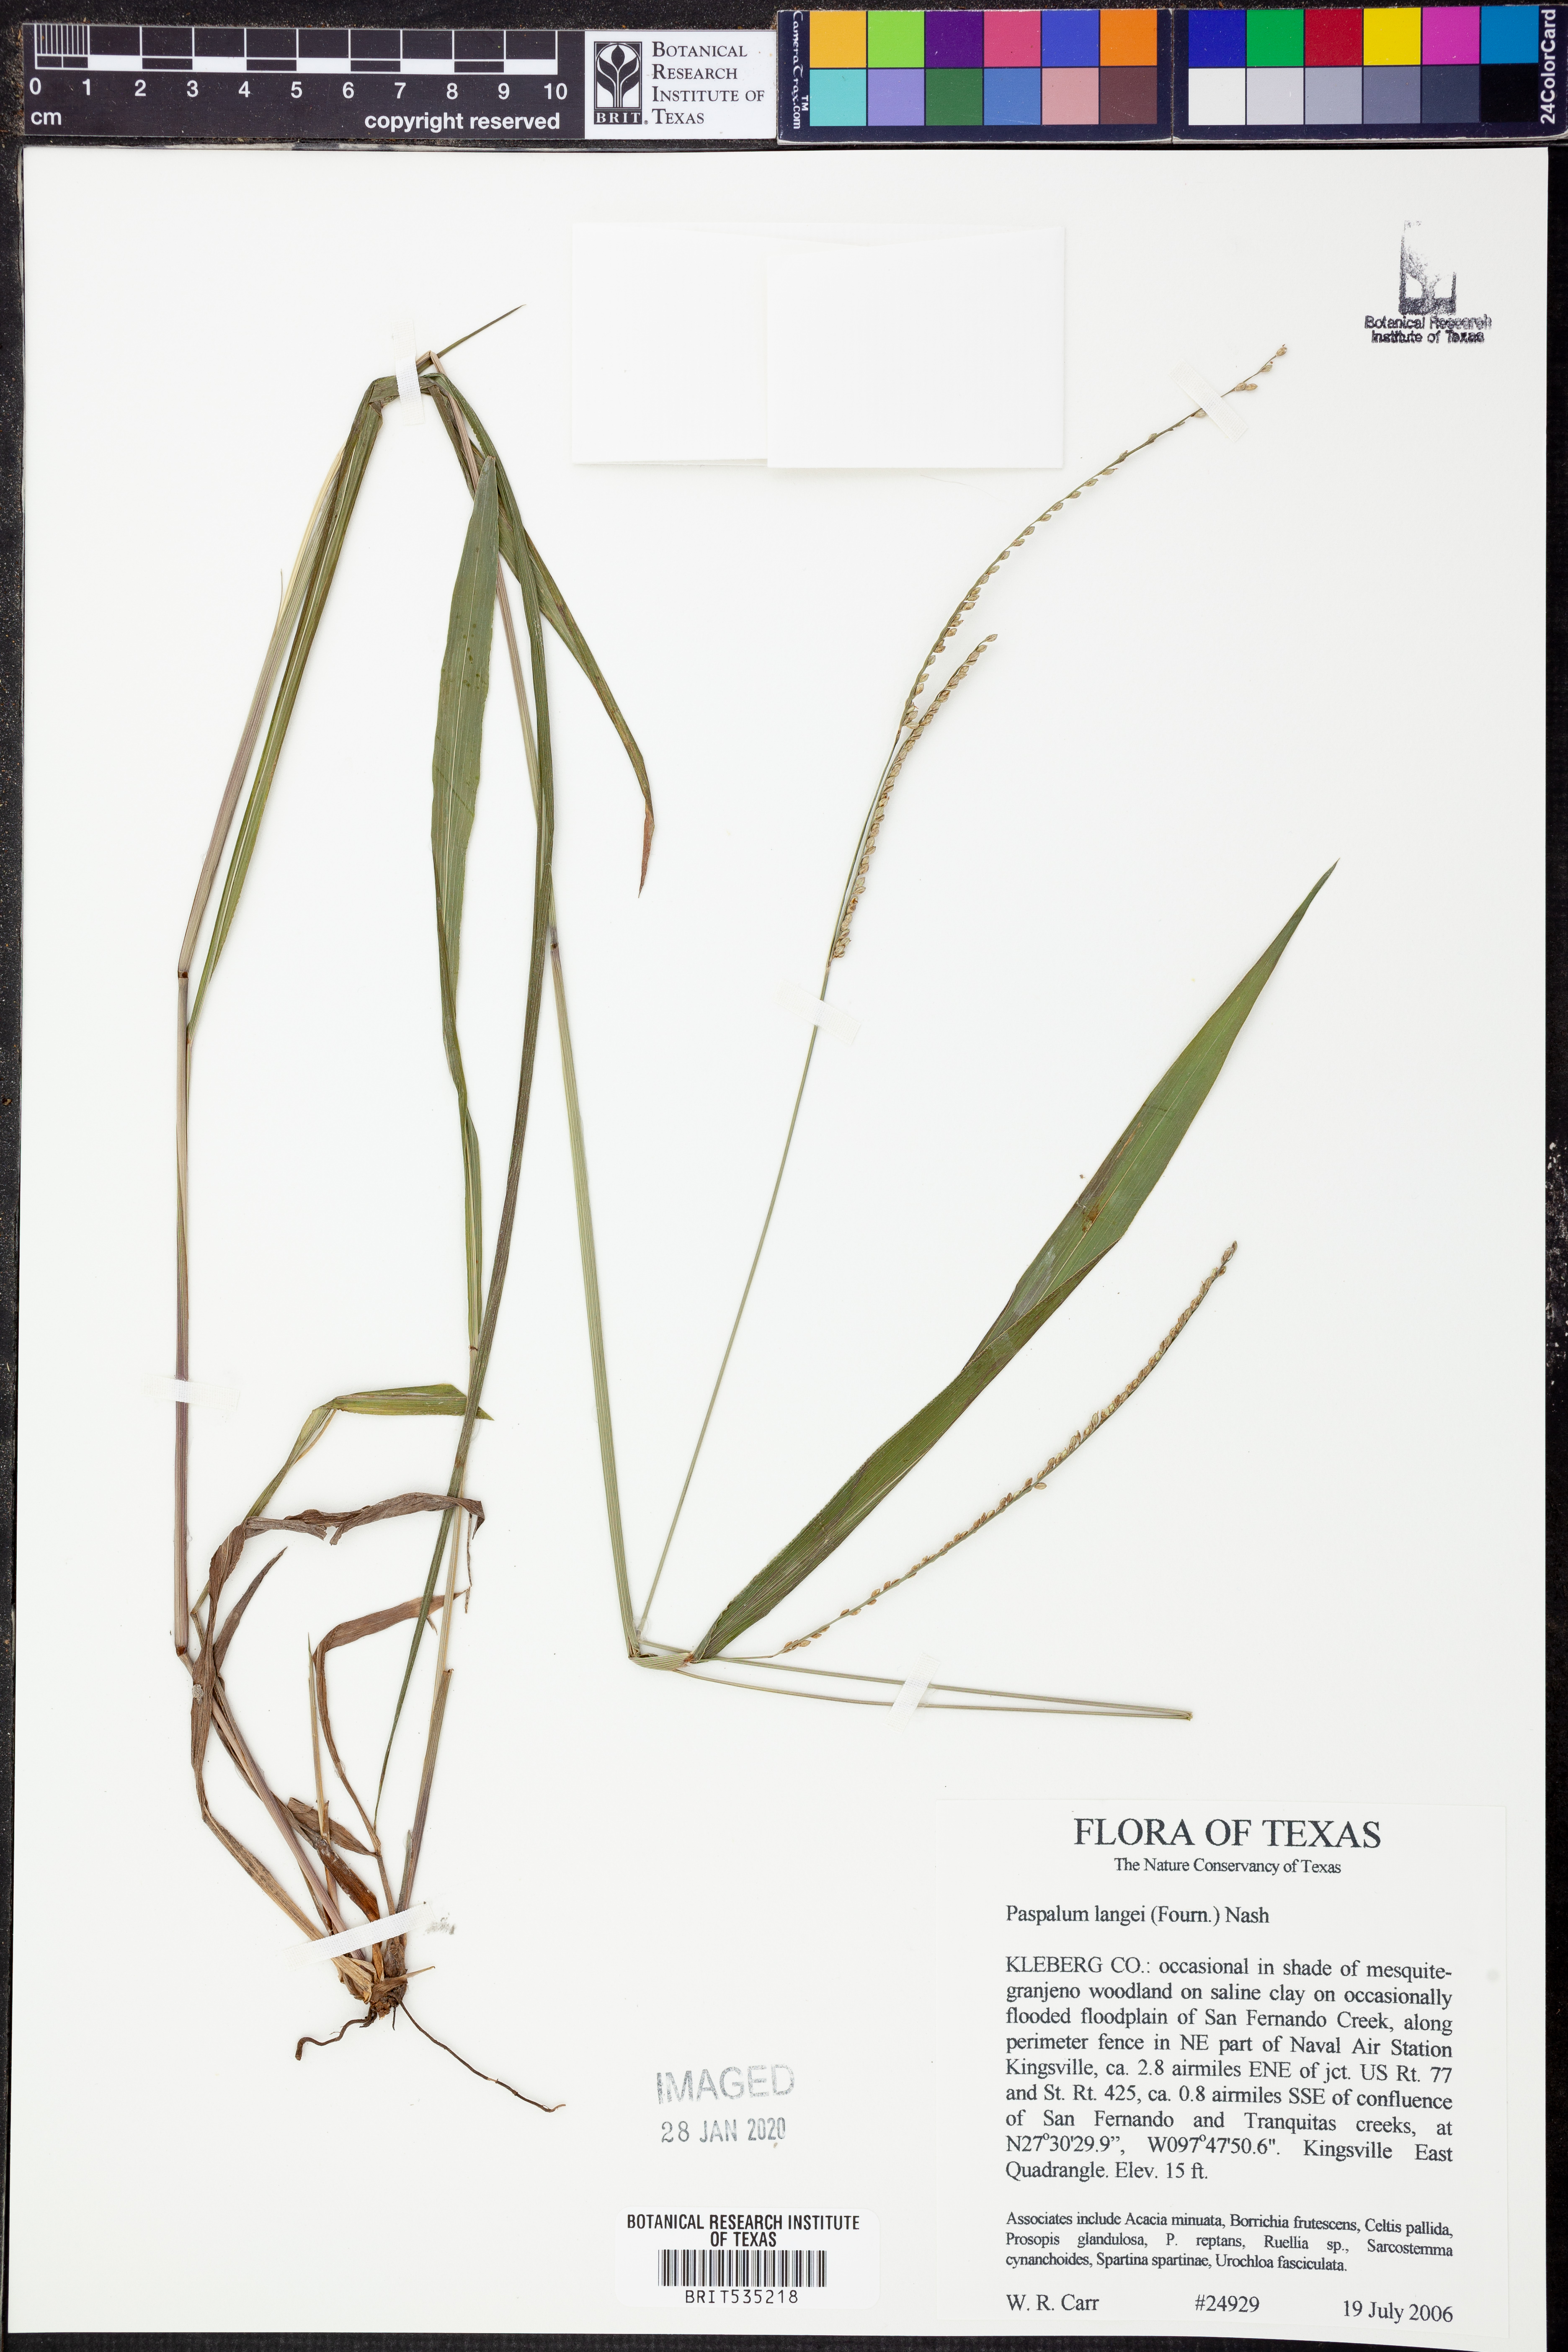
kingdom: Plantae
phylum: Tracheophyta
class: Liliopsida
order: Poales
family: Poaceae
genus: Paspalum
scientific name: Paspalum langei
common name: Rusty-seed paspalum
